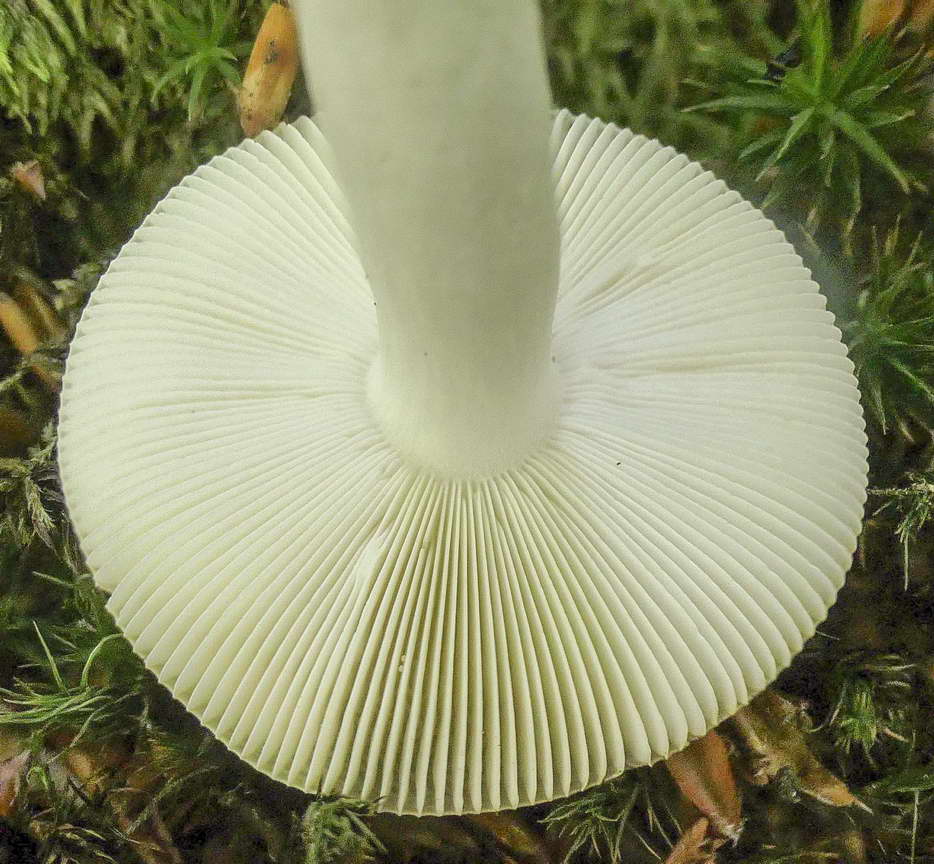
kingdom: Fungi
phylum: Basidiomycota
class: Agaricomycetes
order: Russulales
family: Russulaceae
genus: Russula
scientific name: Russula brunneoviolacea
